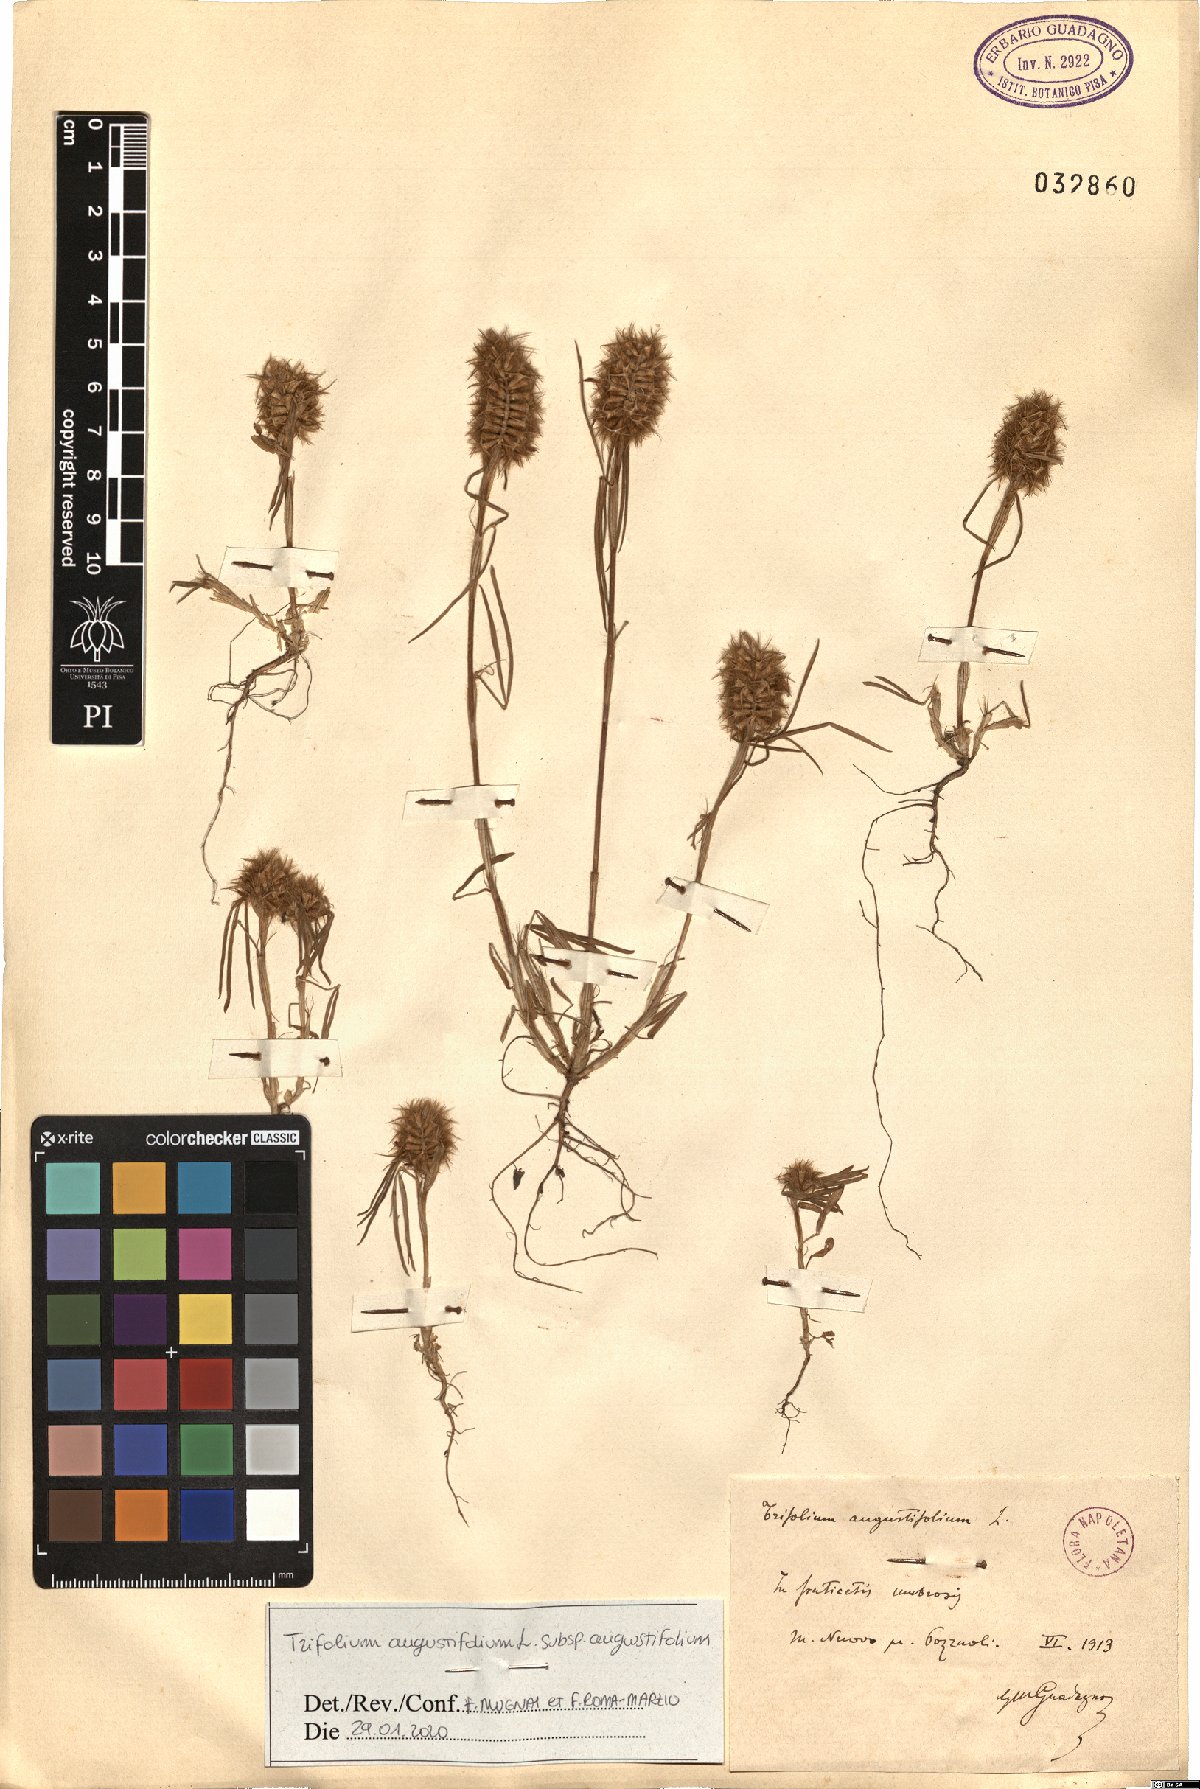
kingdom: Plantae
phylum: Tracheophyta
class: Magnoliopsida
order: Fabales
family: Fabaceae
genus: Trifolium
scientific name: Trifolium angustifolium
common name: Narrow clover
